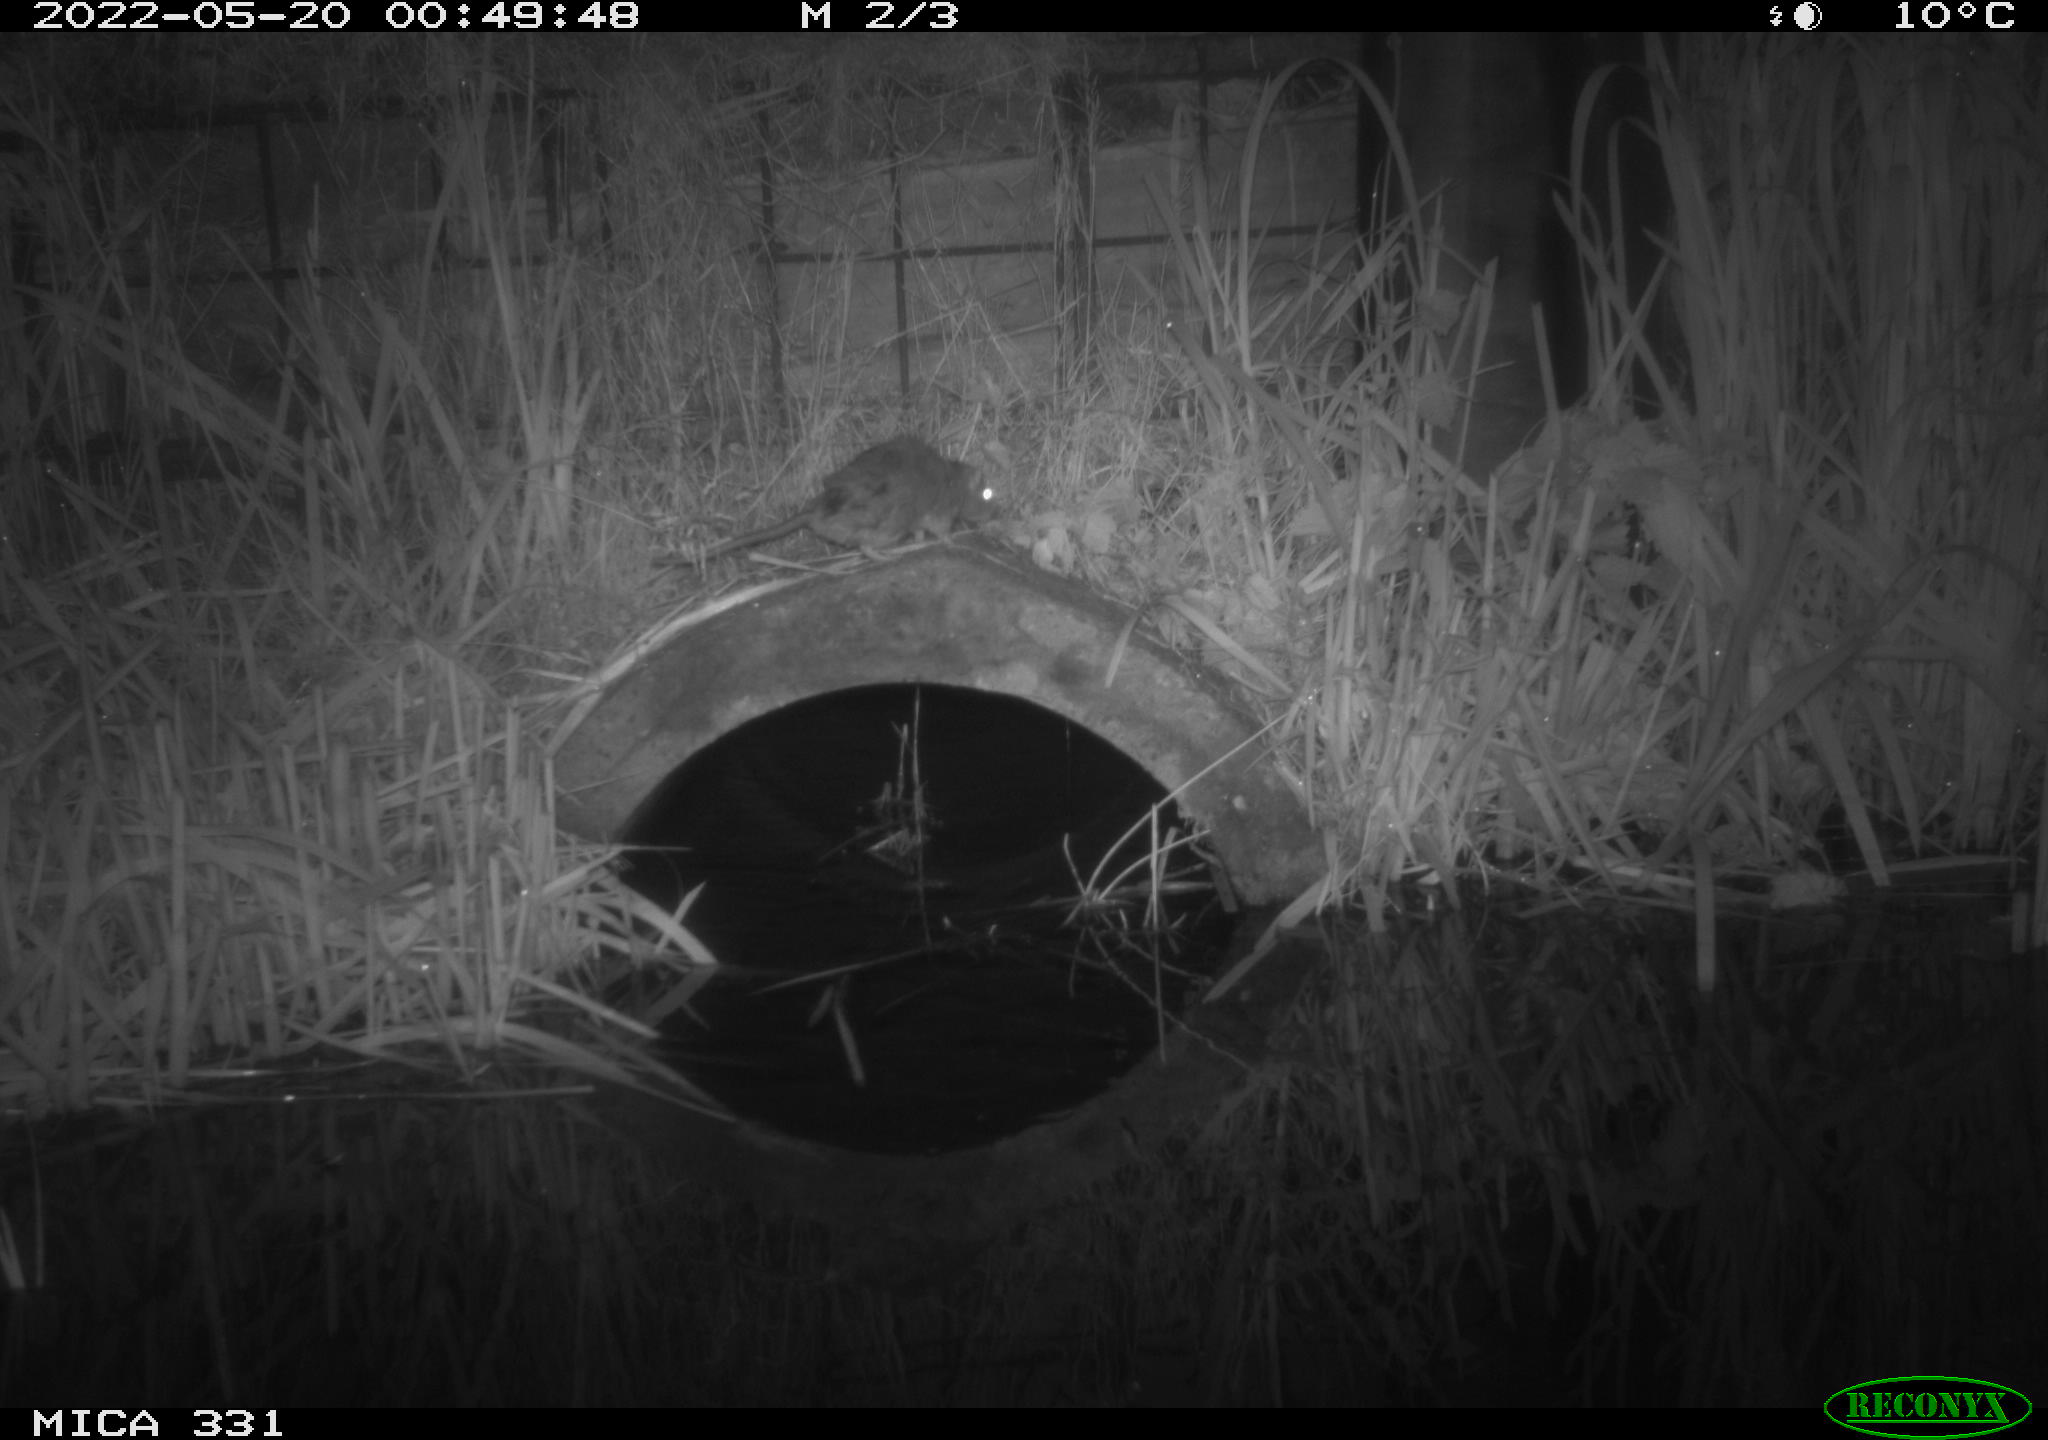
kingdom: Animalia
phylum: Chordata
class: Mammalia
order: Rodentia
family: Muridae
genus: Rattus
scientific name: Rattus norvegicus
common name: Brown rat
